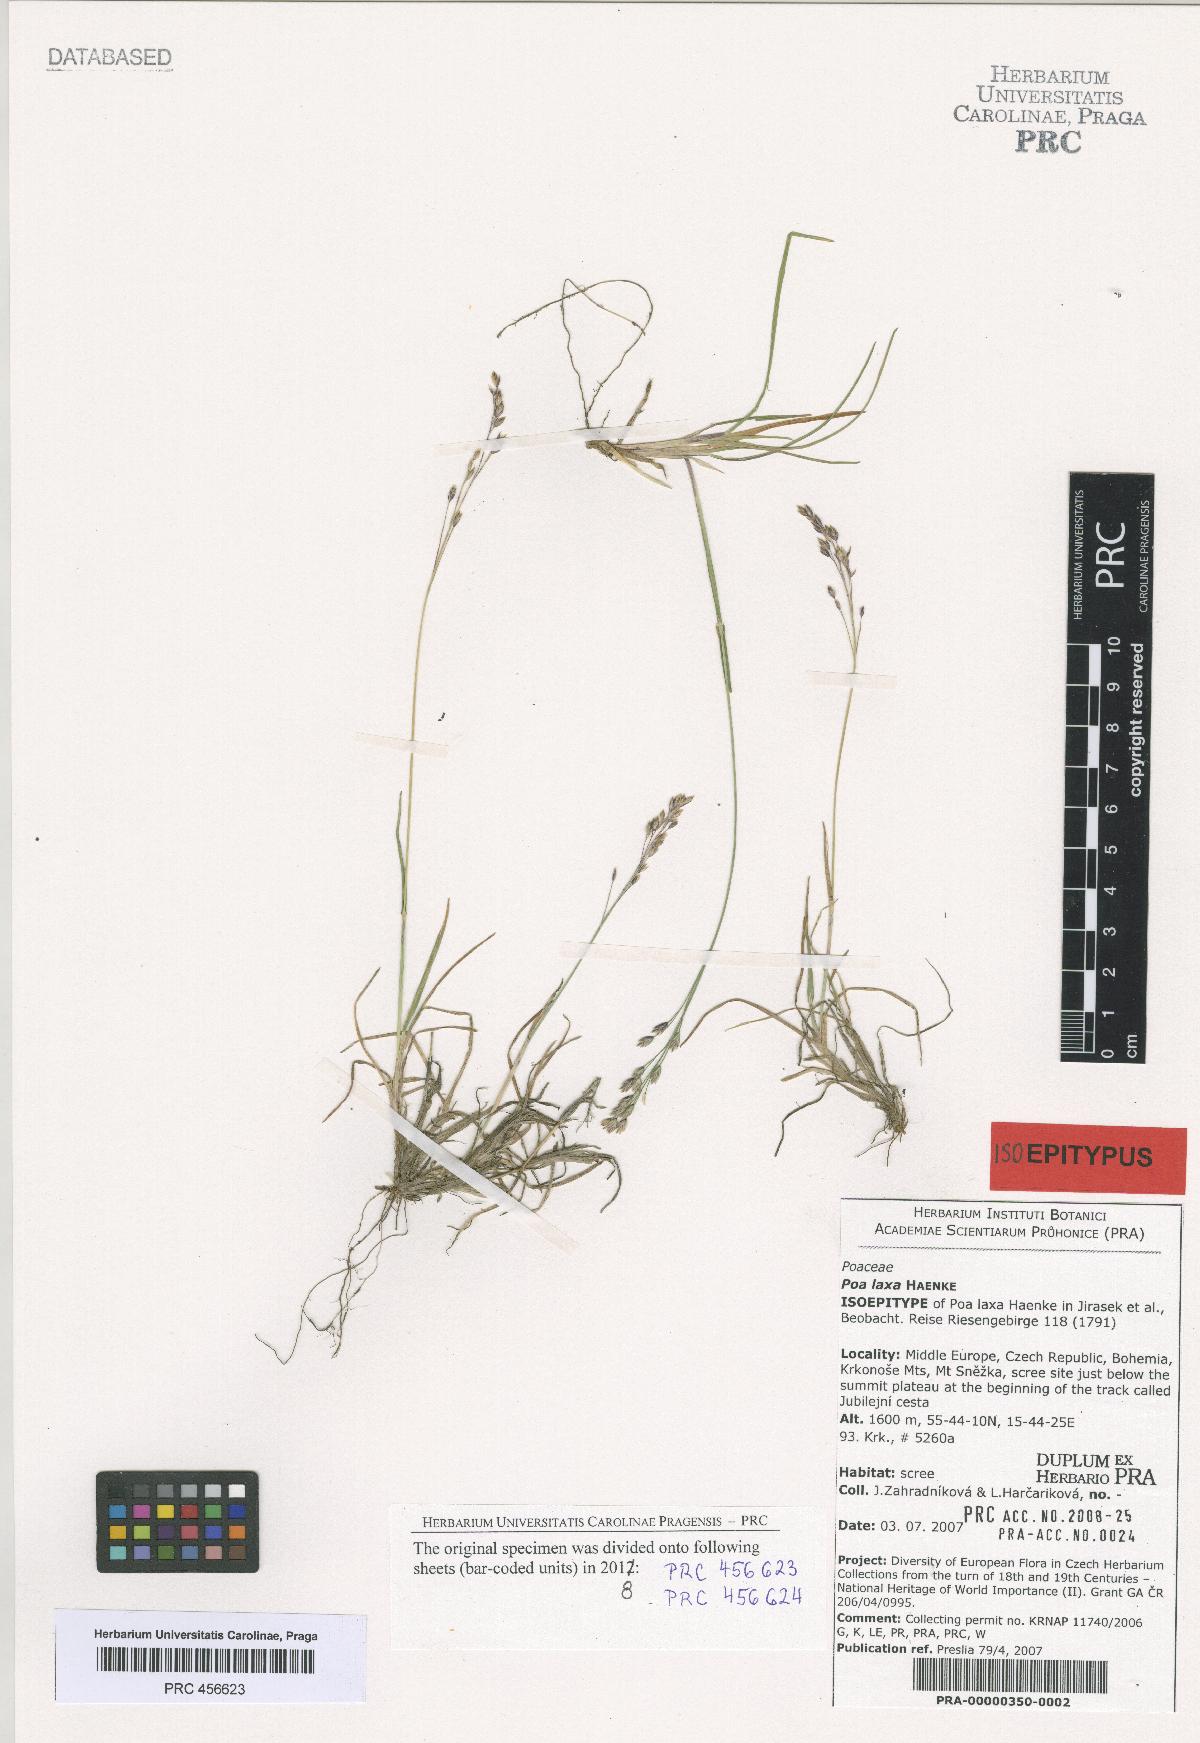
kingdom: Plantae
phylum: Tracheophyta
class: Liliopsida
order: Poales
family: Poaceae
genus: Poa
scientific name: Poa laxa
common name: Lax bluegrass
